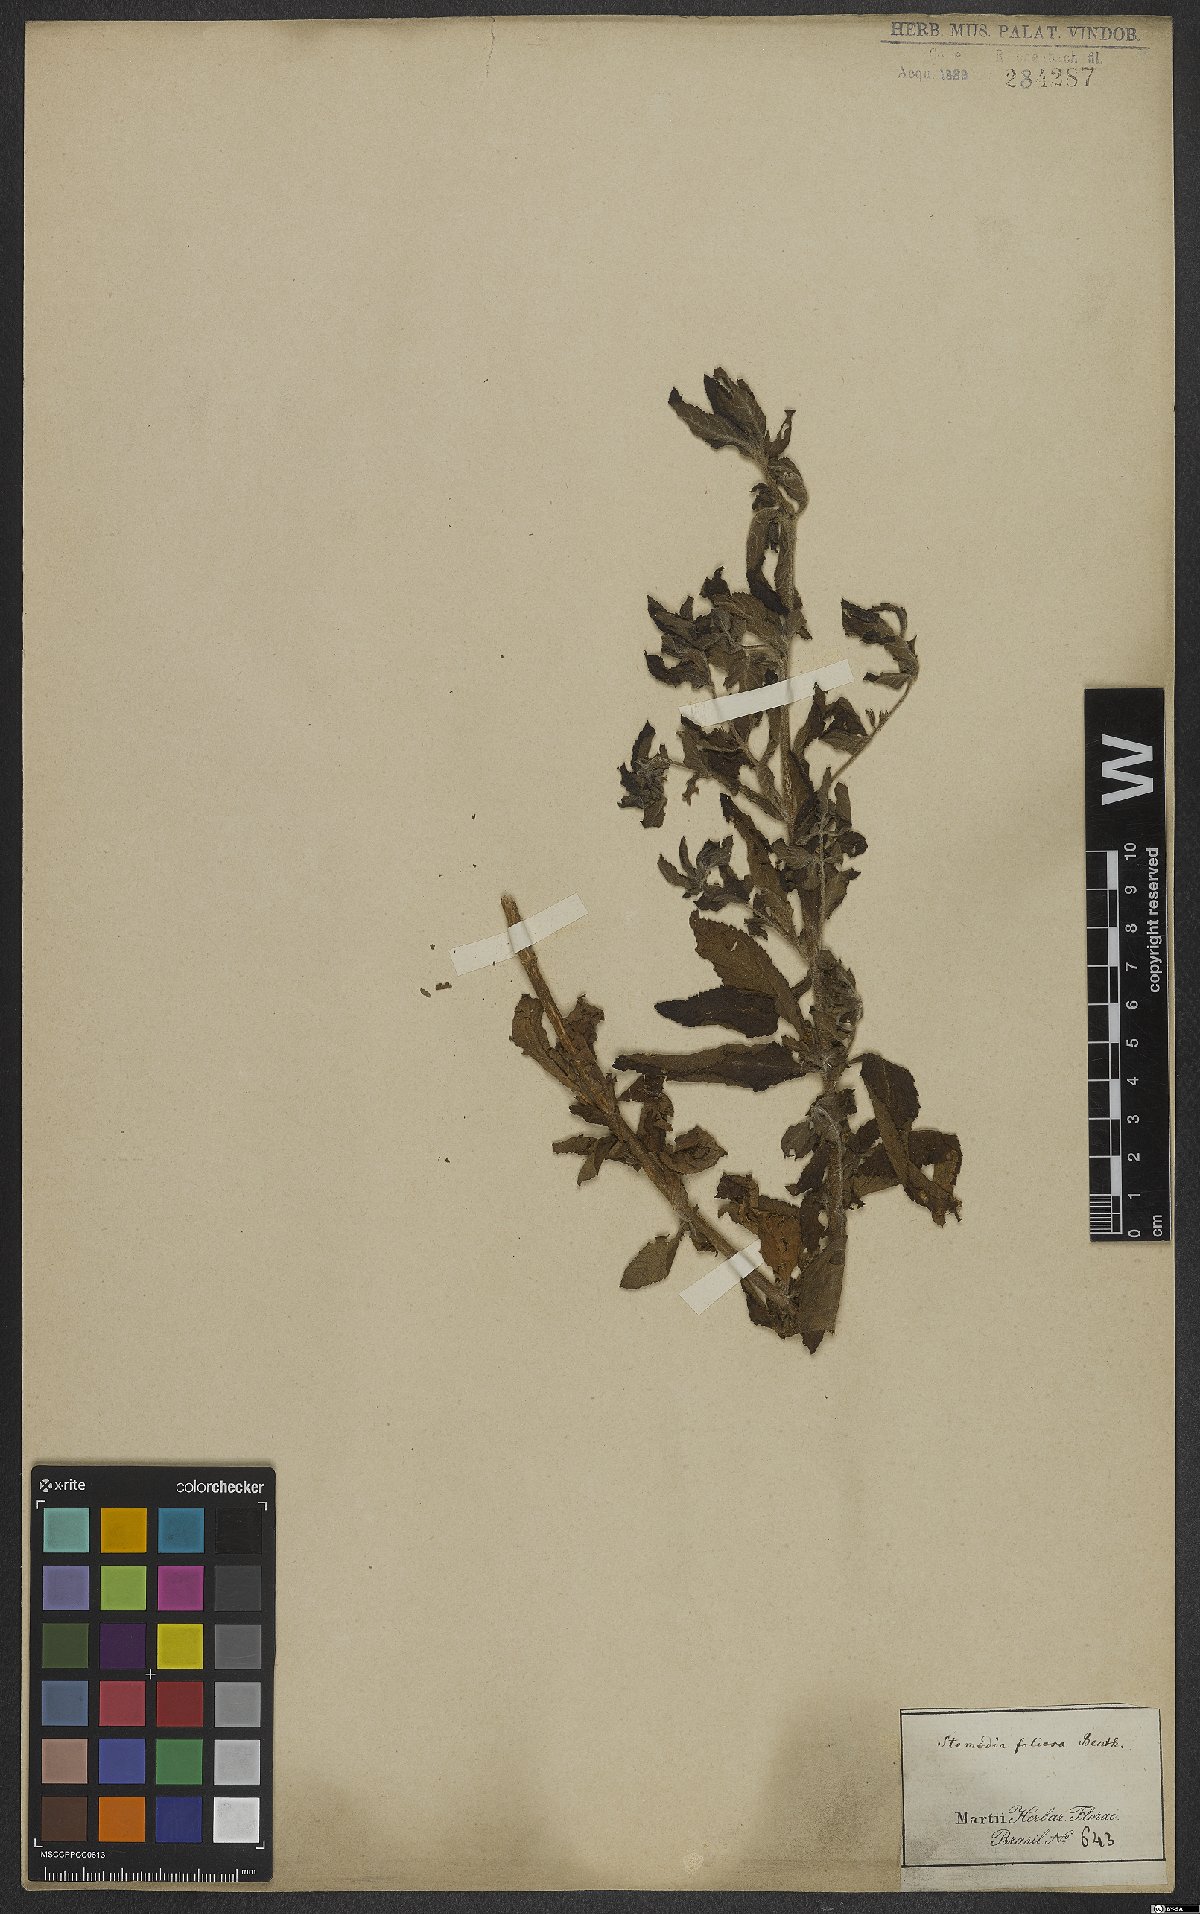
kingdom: Plantae
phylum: Tracheophyta
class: Magnoliopsida
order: Lamiales
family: Plantaginaceae
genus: Stemodia
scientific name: Stemodia foliosa
